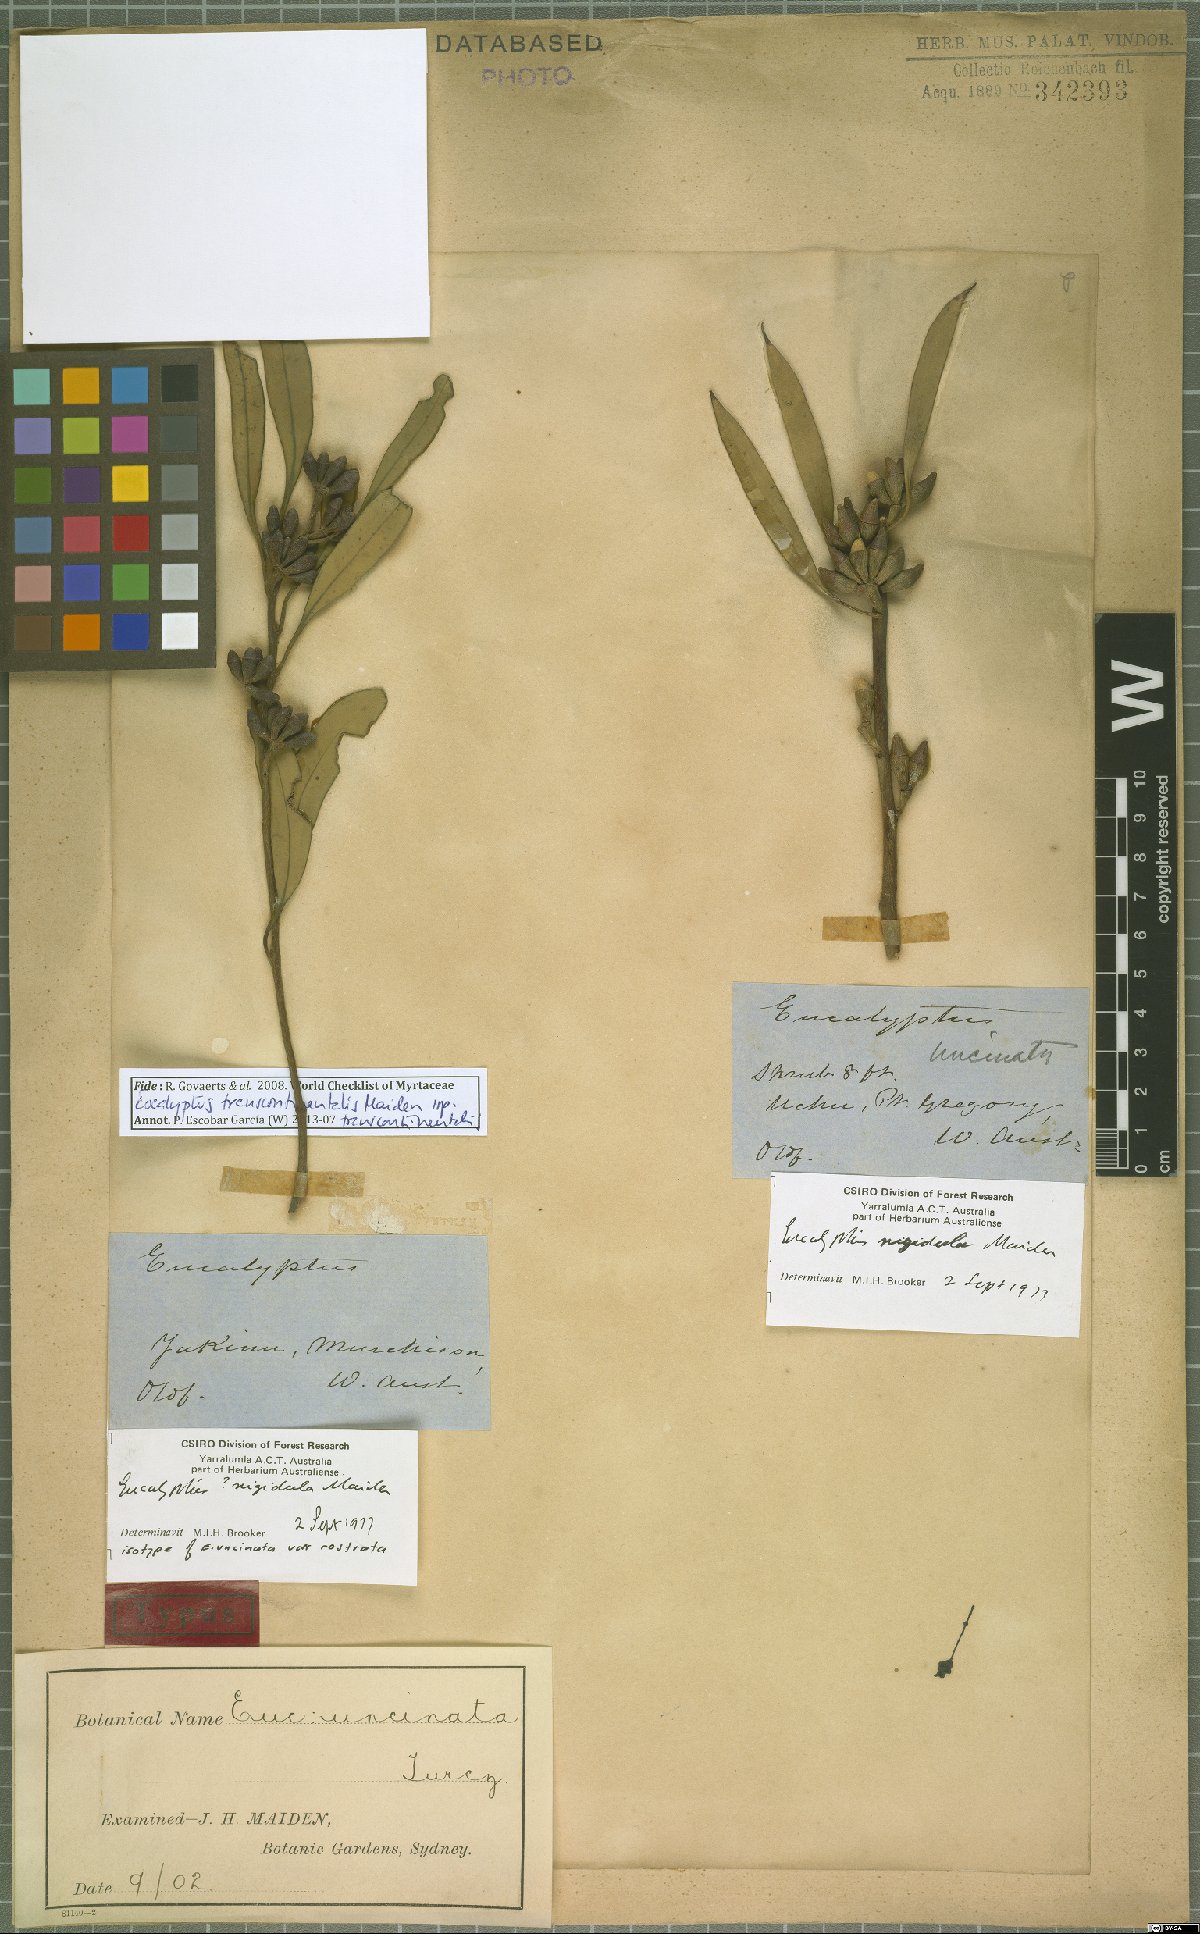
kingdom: Plantae
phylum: Tracheophyta
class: Magnoliopsida
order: Myrtales
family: Myrtaceae
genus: Eucalyptus
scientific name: Eucalyptus transcontinentalis
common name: Redwood
